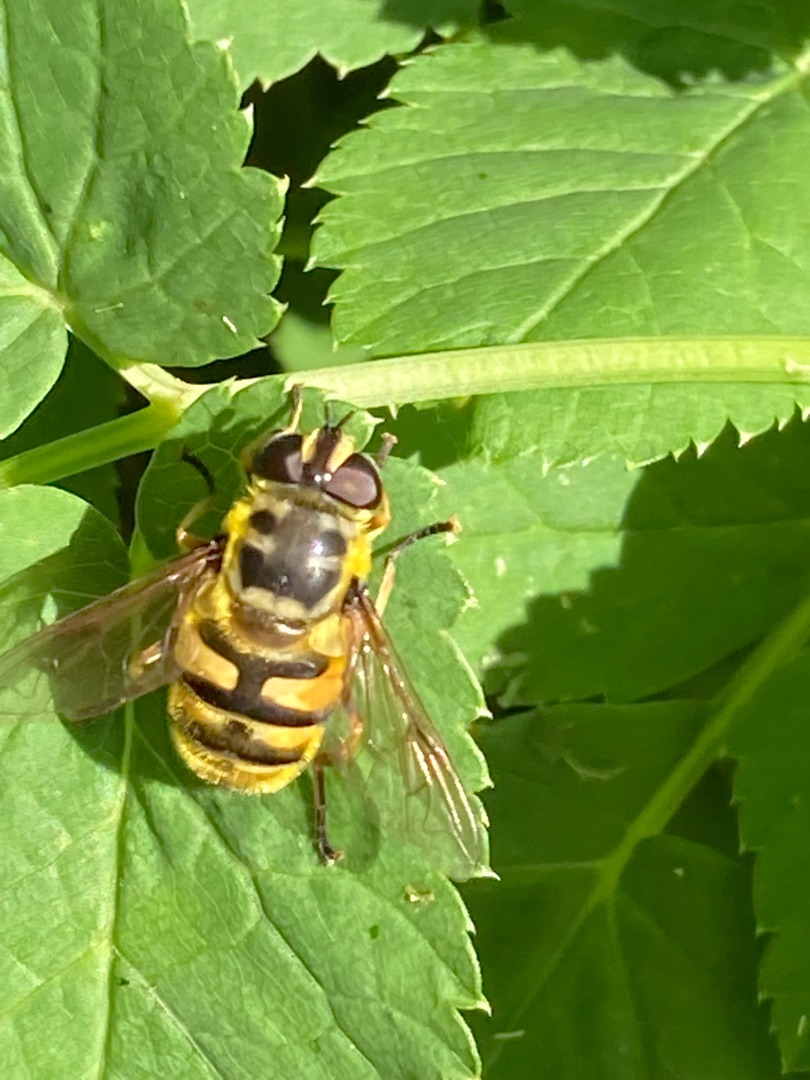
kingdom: Animalia
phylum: Arthropoda
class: Insecta
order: Diptera
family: Syrphidae
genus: Myathropa
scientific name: Myathropa florea
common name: Dødningehoved-svirreflue
